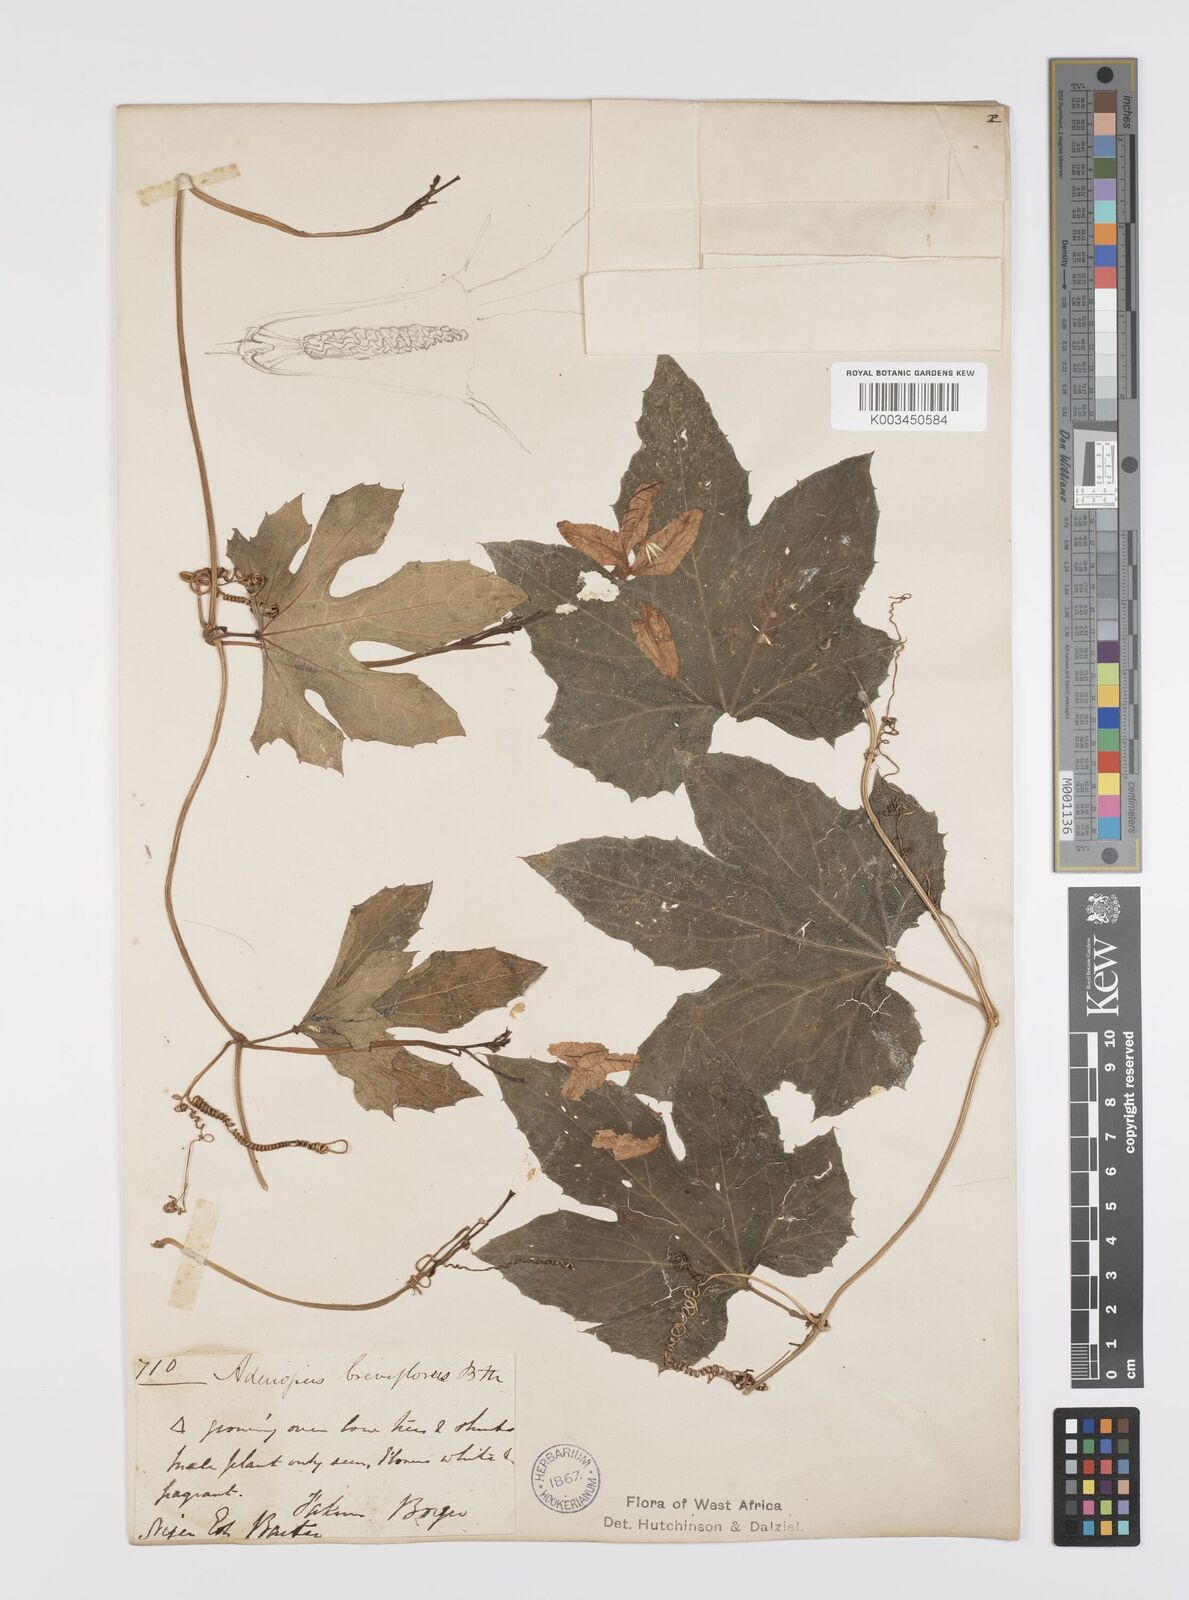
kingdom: Plantae
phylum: Tracheophyta
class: Magnoliopsida
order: Cucurbitales
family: Cucurbitaceae
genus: Lagenaria
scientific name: Lagenaria breviflora
